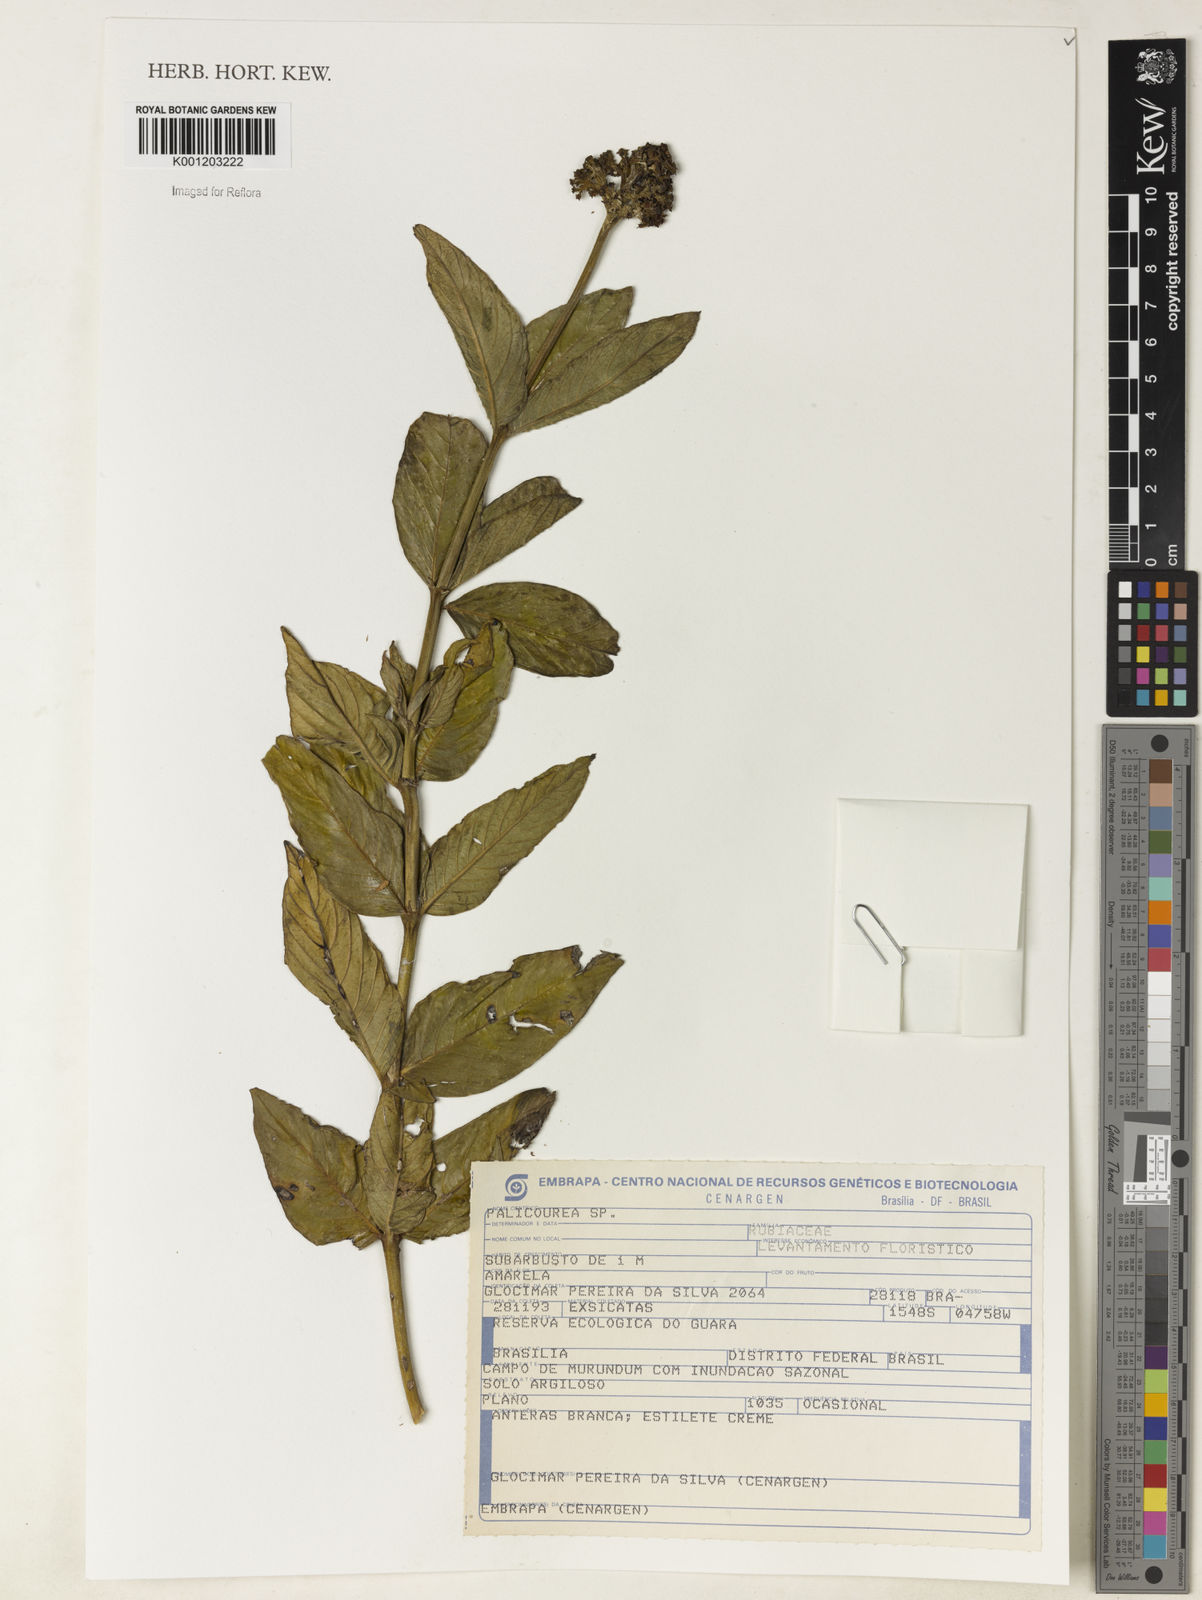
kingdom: Plantae
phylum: Tracheophyta
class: Magnoliopsida
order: Gentianales
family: Rubiaceae
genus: Palicourea
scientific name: Palicourea
